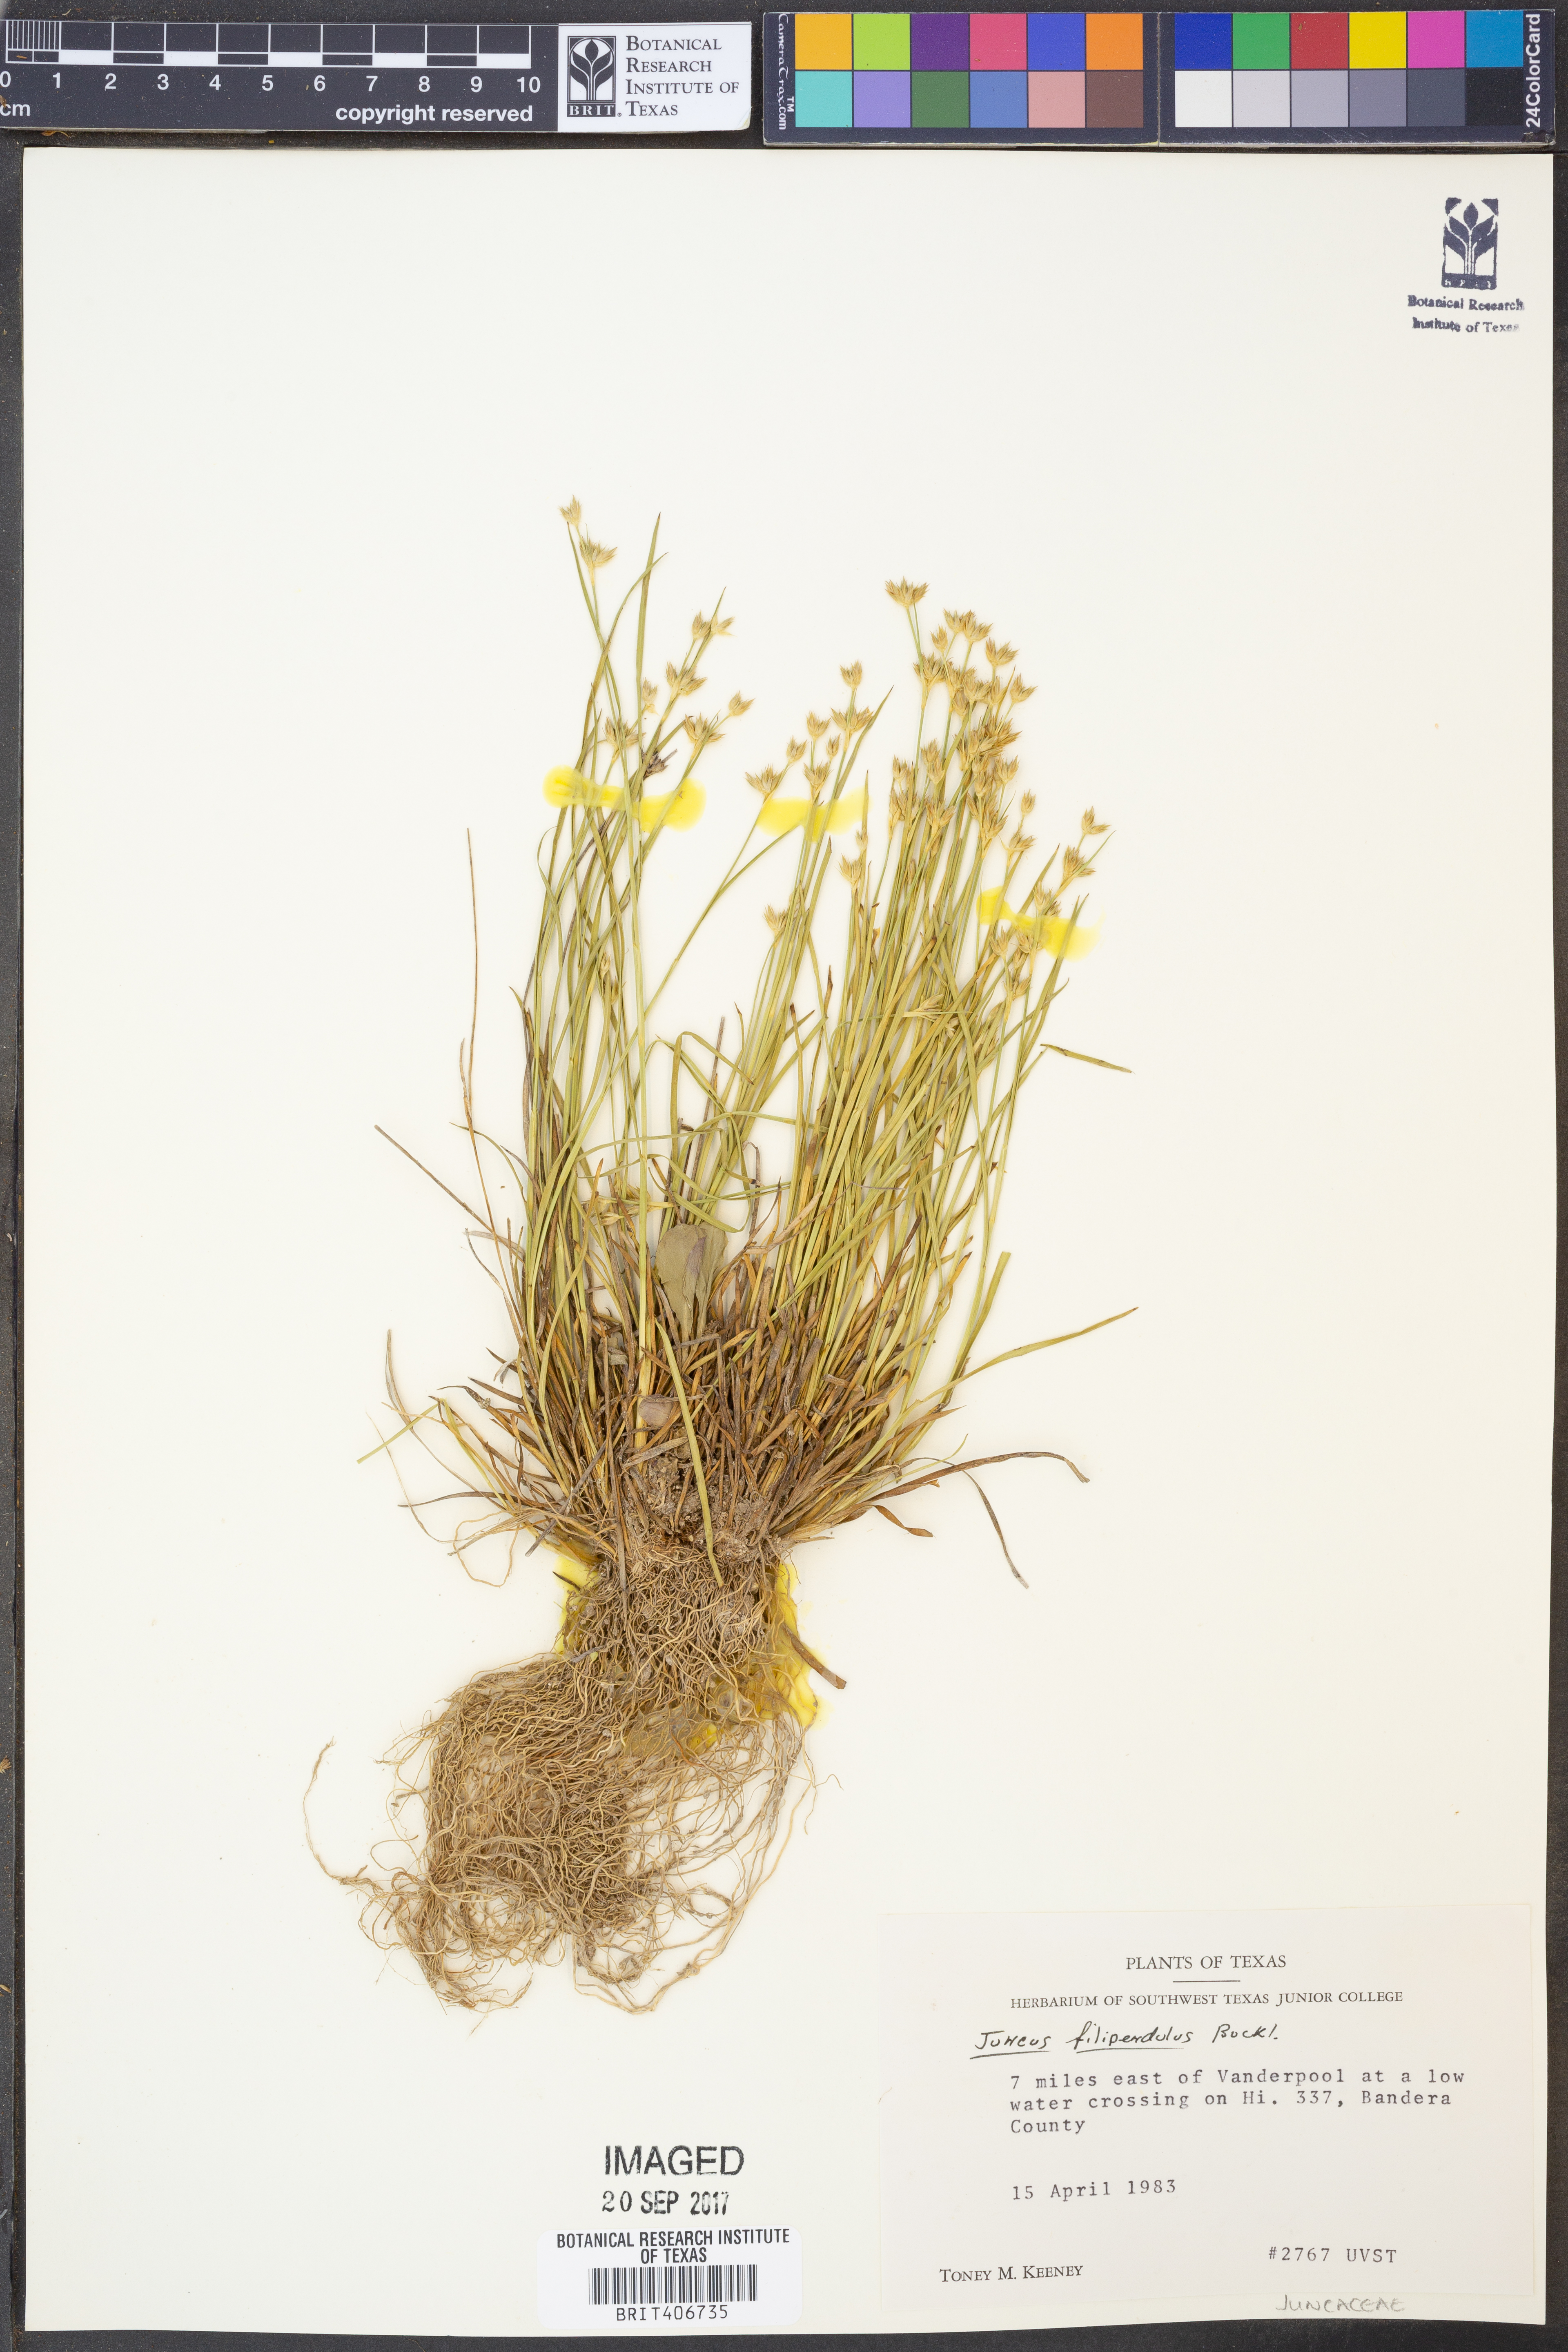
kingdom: Plantae
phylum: Tracheophyta
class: Liliopsida
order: Poales
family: Juncaceae
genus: Juncus
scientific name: Juncus filipendulus
